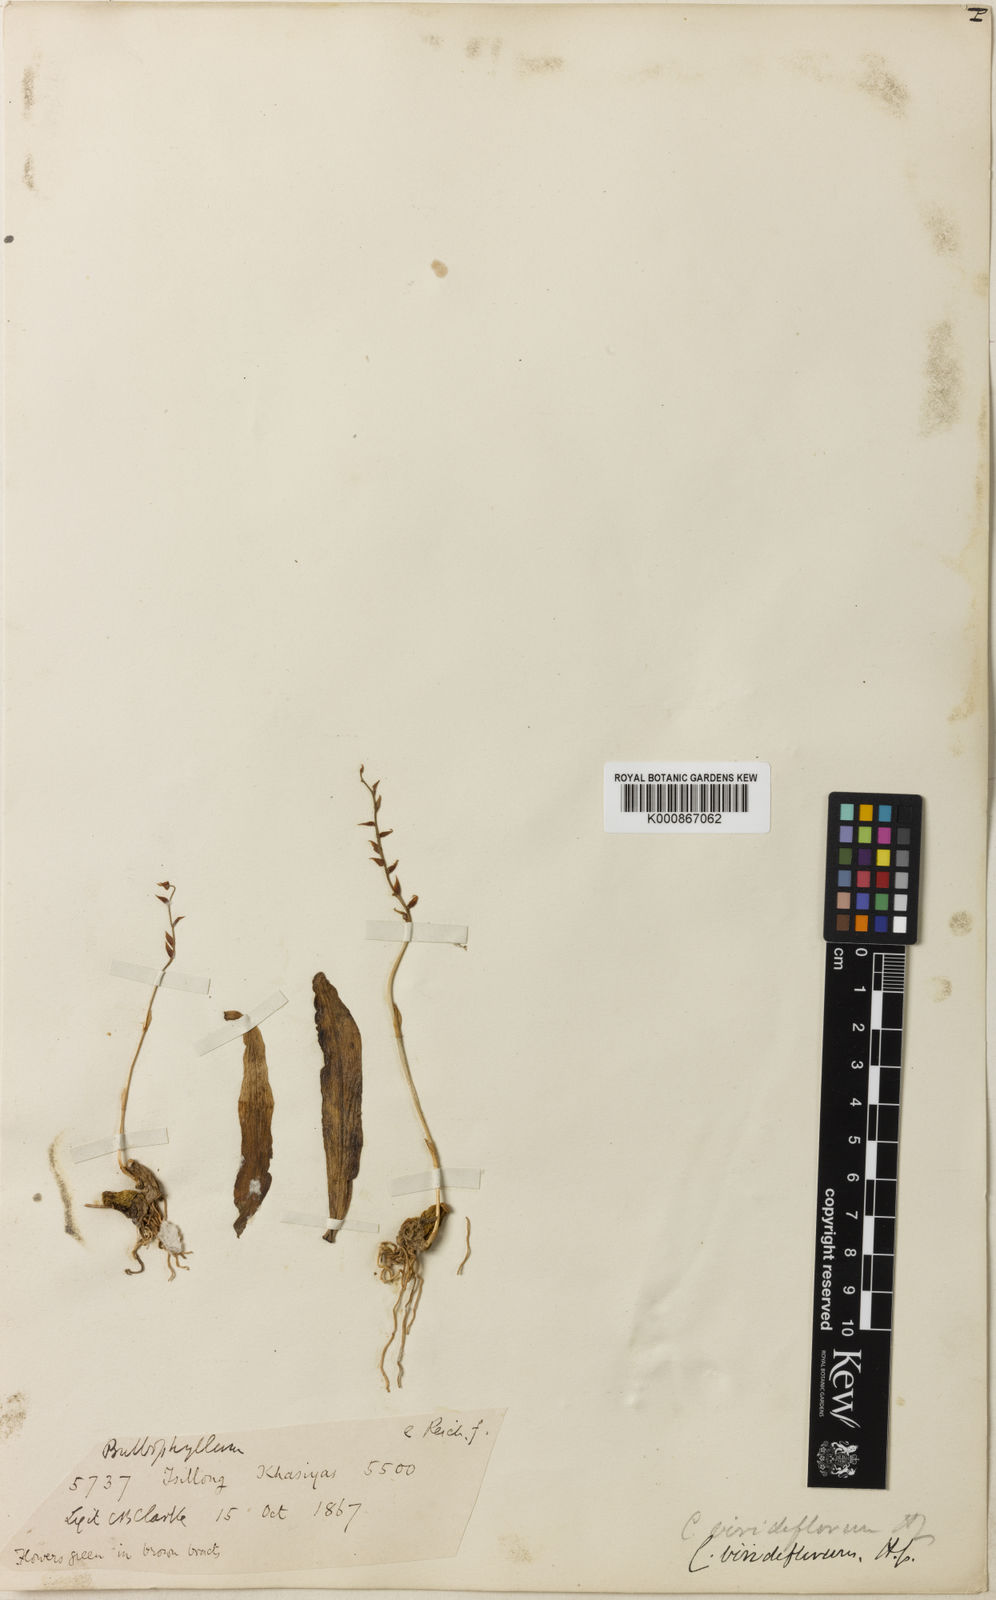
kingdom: Plantae
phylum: Tracheophyta
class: Liliopsida
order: Asparagales
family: Orchidaceae
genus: Bulbophyllum
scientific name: Bulbophyllum viridiflorum
